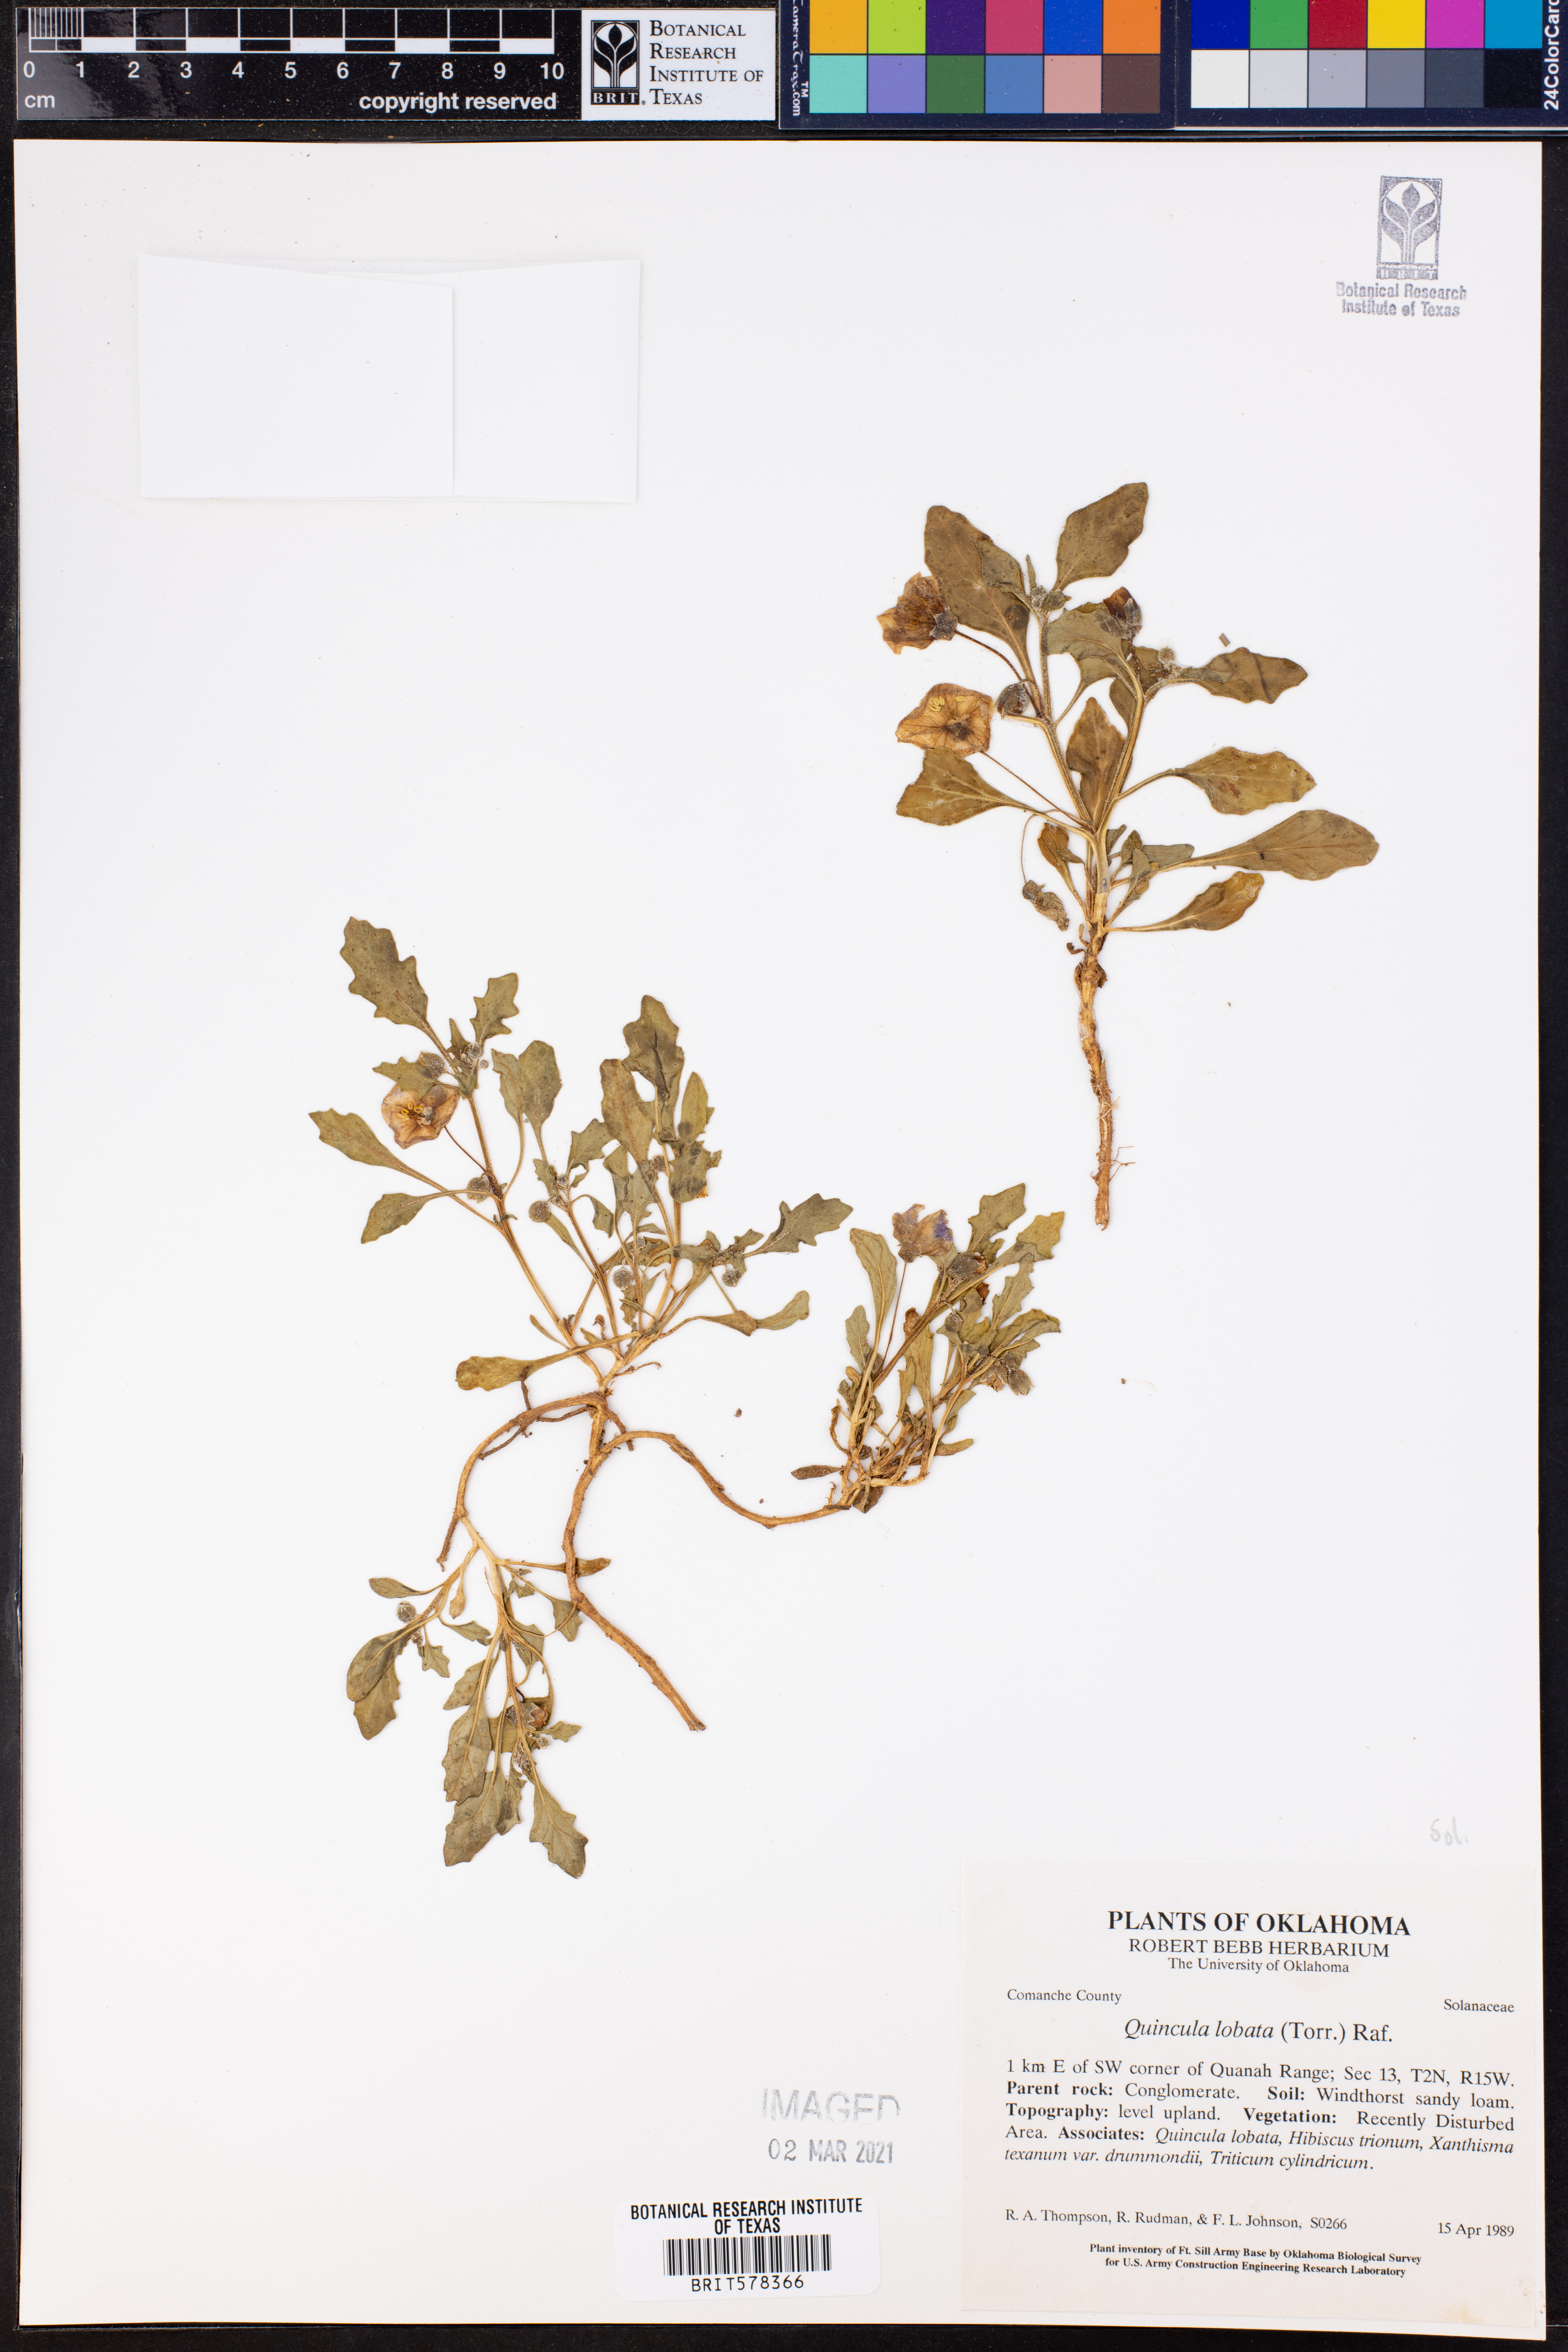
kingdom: Plantae
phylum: Tracheophyta
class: Magnoliopsida
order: Solanales
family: Solanaceae
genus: Quincula
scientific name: Quincula lobata
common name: Purple-ground-cherry
